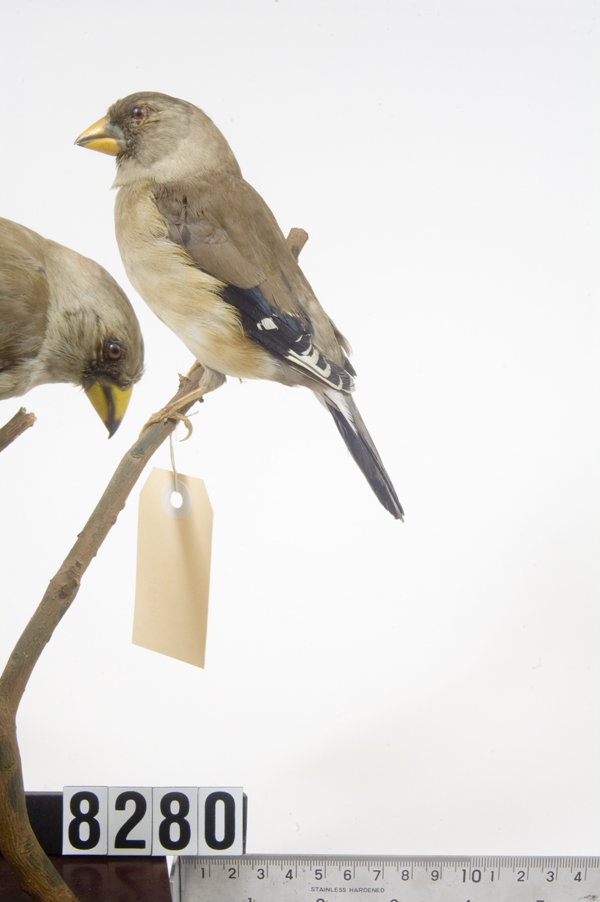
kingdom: Animalia
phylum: Chordata
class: Aves
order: Passeriformes
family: Fringillidae
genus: Euphonia
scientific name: Euphonia laniirostris
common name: Thick-billed euphonia
